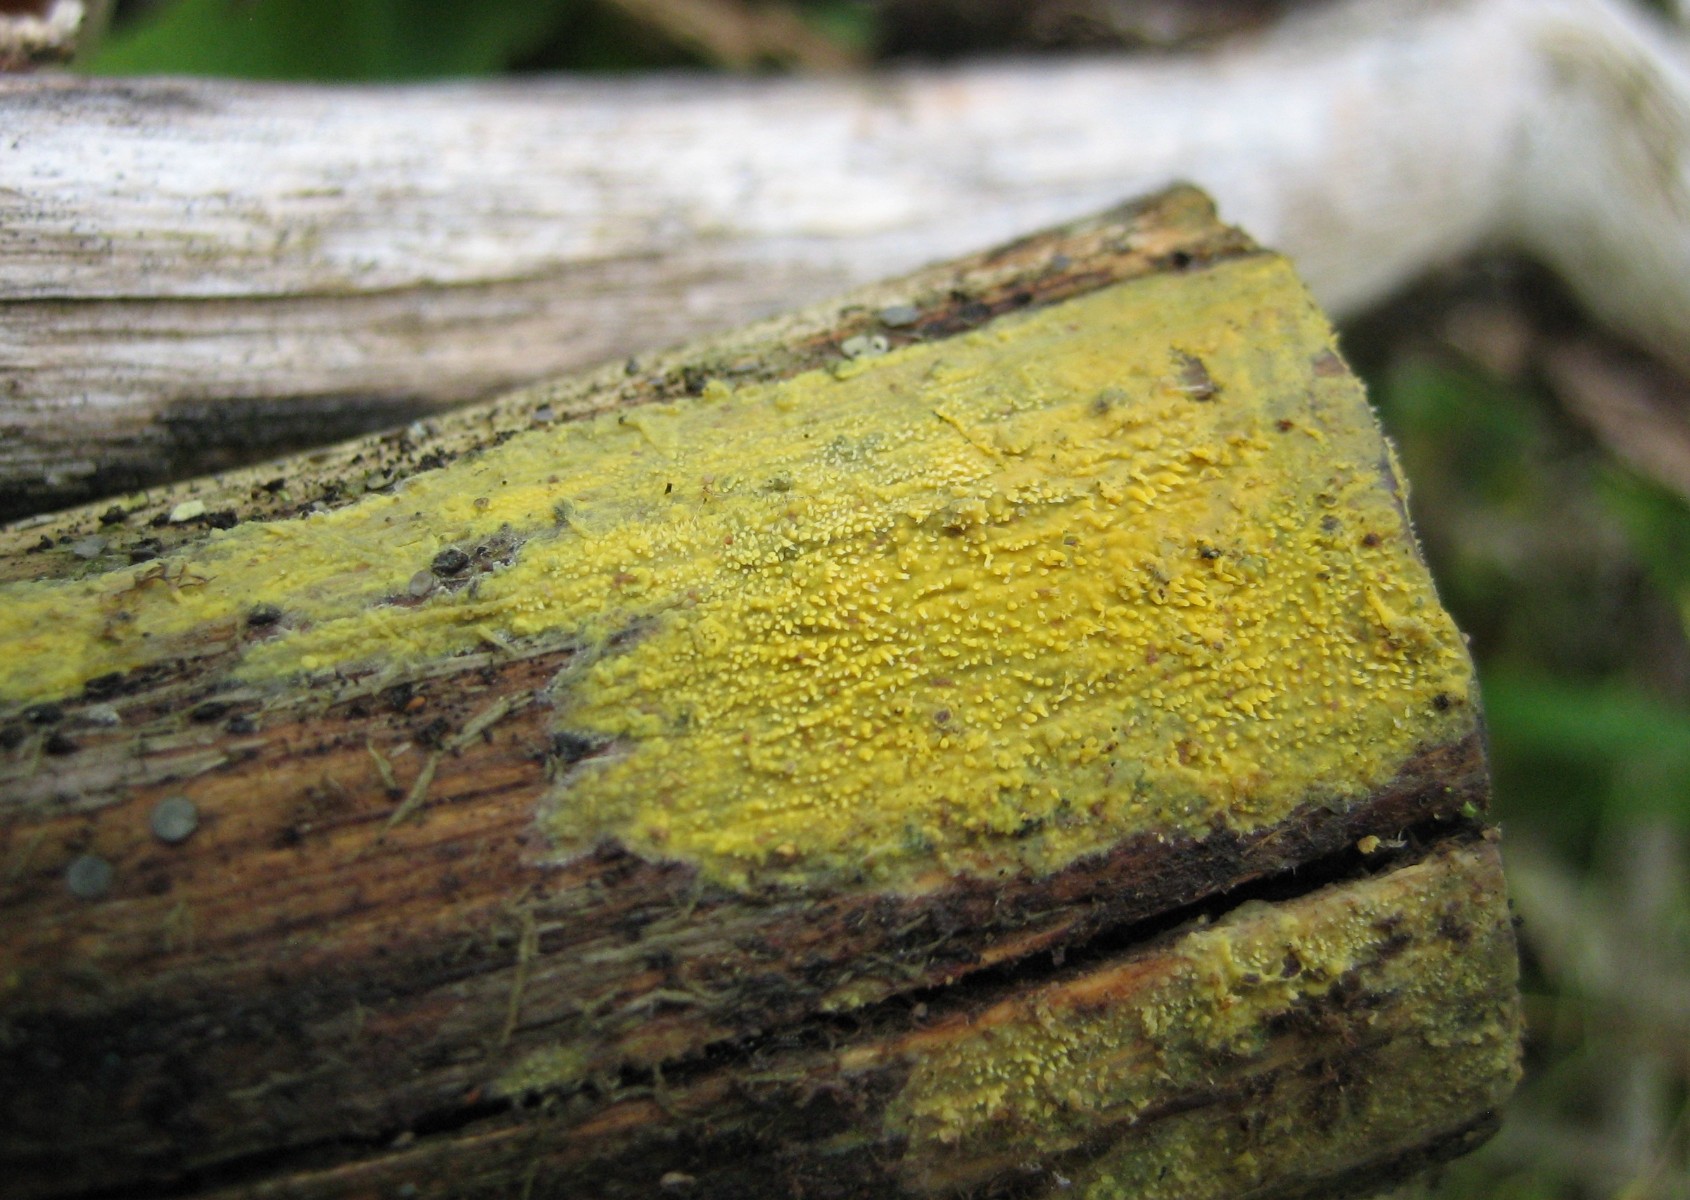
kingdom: Fungi
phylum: Basidiomycota
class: Agaricomycetes
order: Polyporales
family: Meruliaceae
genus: Mycoacia
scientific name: Mycoacia uda
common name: citrongul vokspig
